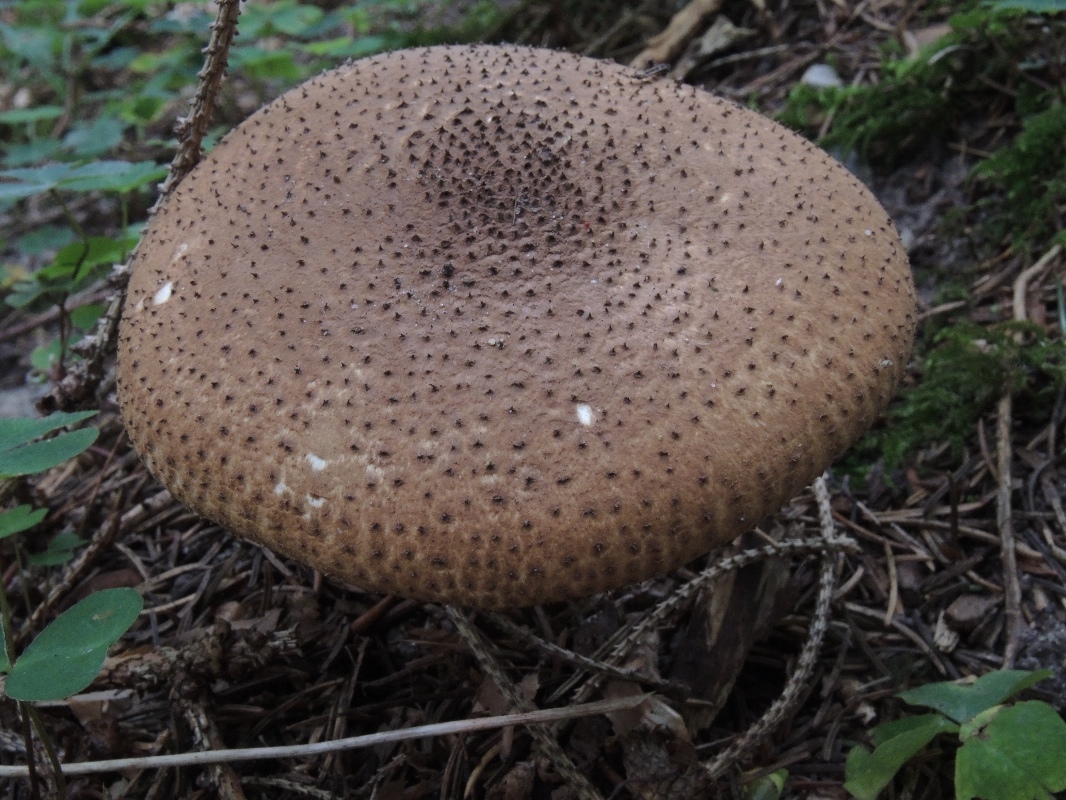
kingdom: Fungi
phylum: Basidiomycota
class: Agaricomycetes
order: Agaricales
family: Agaricaceae
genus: Echinoderma
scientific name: Echinoderma asperum
